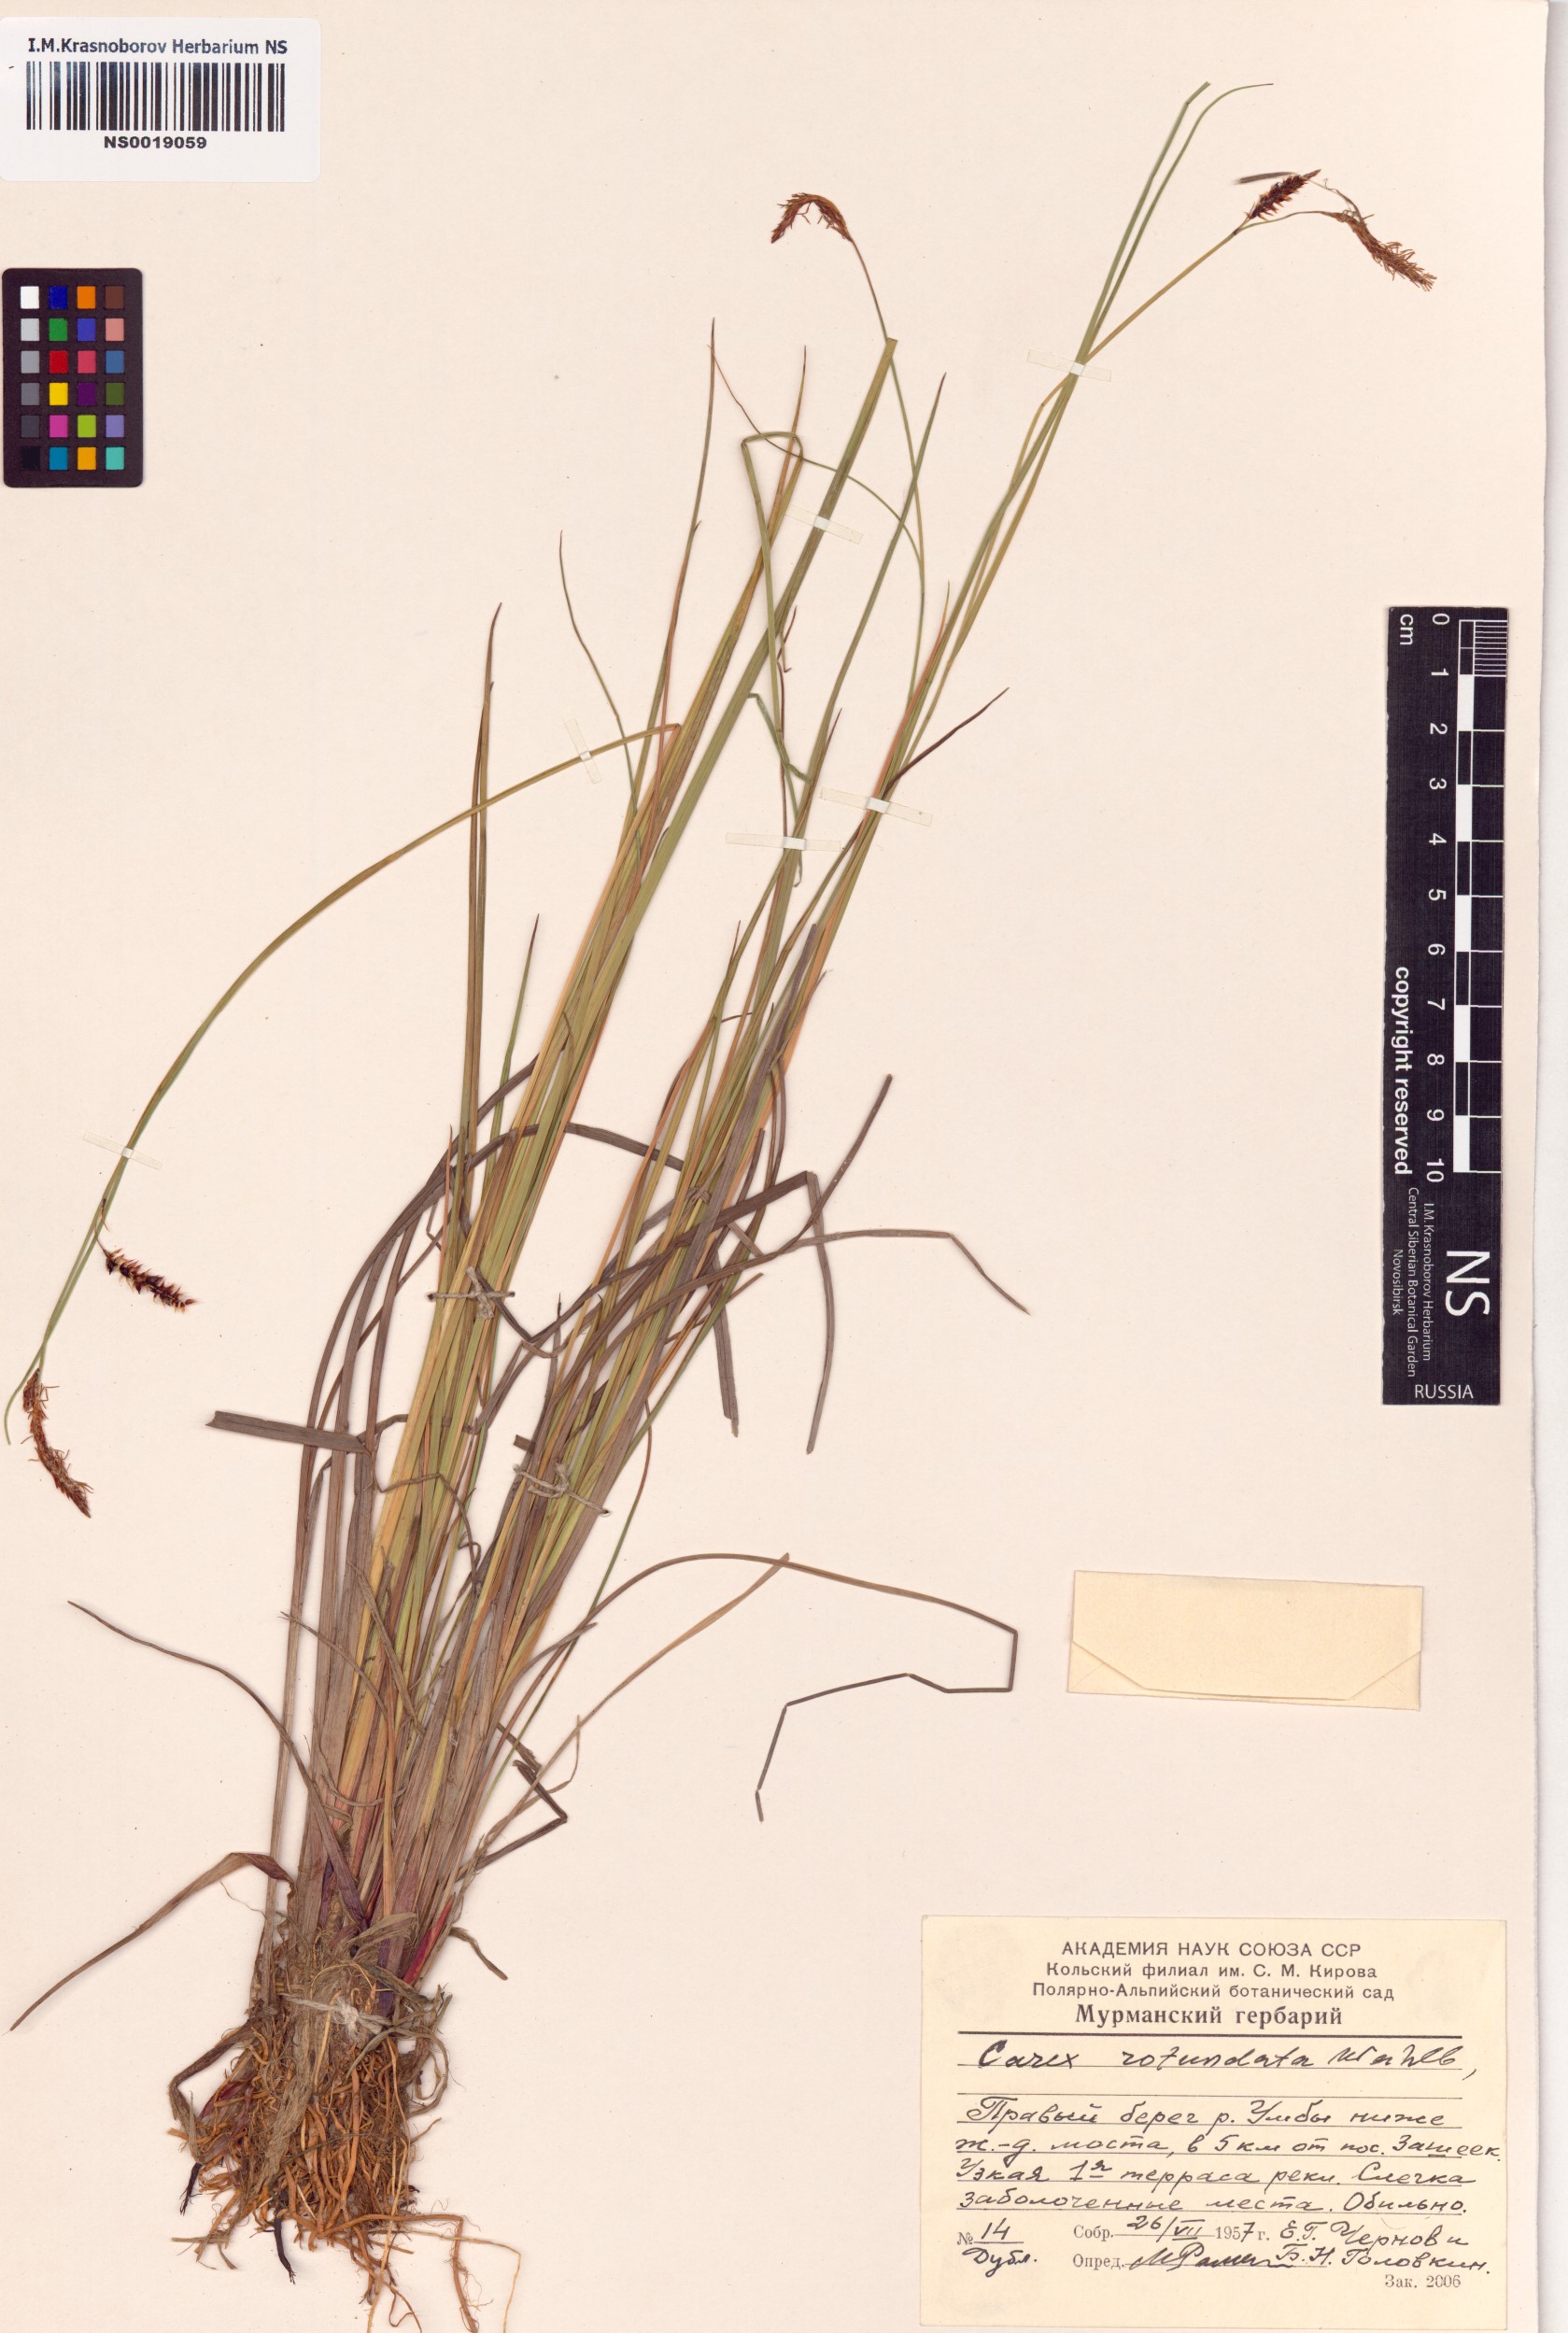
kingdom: Plantae
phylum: Tracheophyta
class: Liliopsida
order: Poales
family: Cyperaceae
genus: Carex
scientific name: Carex rotundata
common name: Round-fruited sedge
